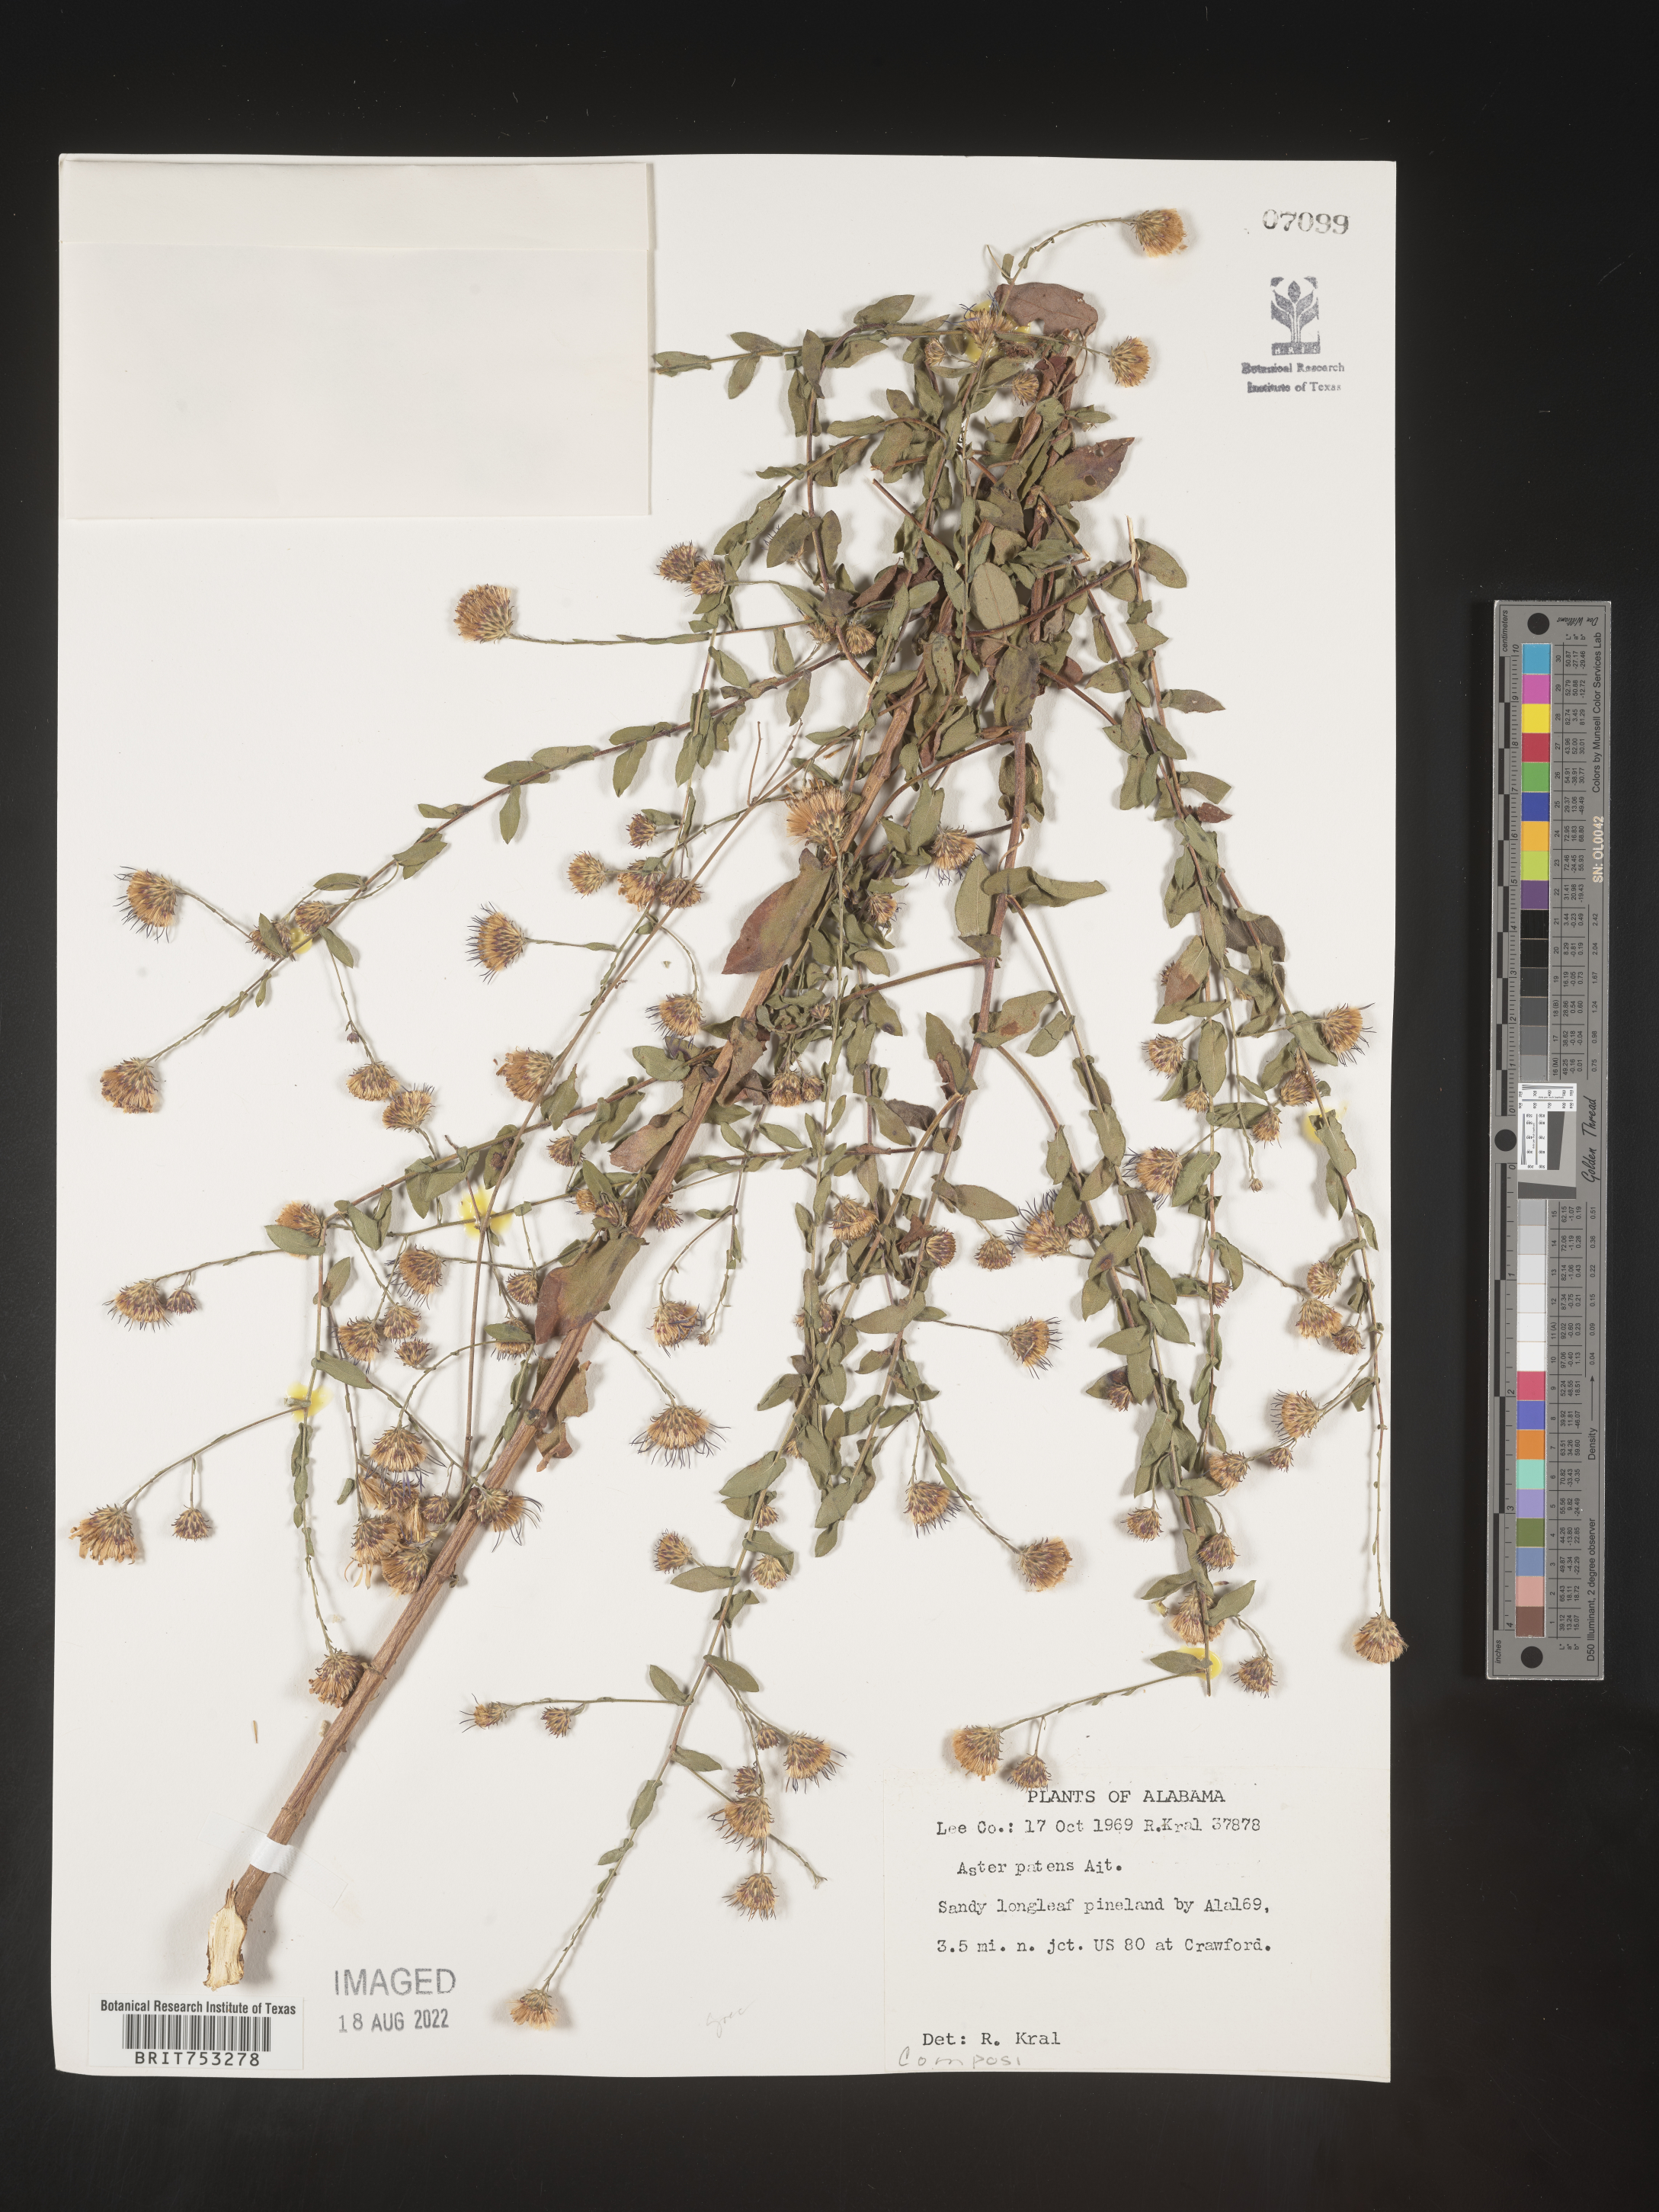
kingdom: Plantae
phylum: Tracheophyta
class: Magnoliopsida
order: Asterales
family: Asteraceae
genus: Symphyotrichum
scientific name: Symphyotrichum patens
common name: Late purple aster
